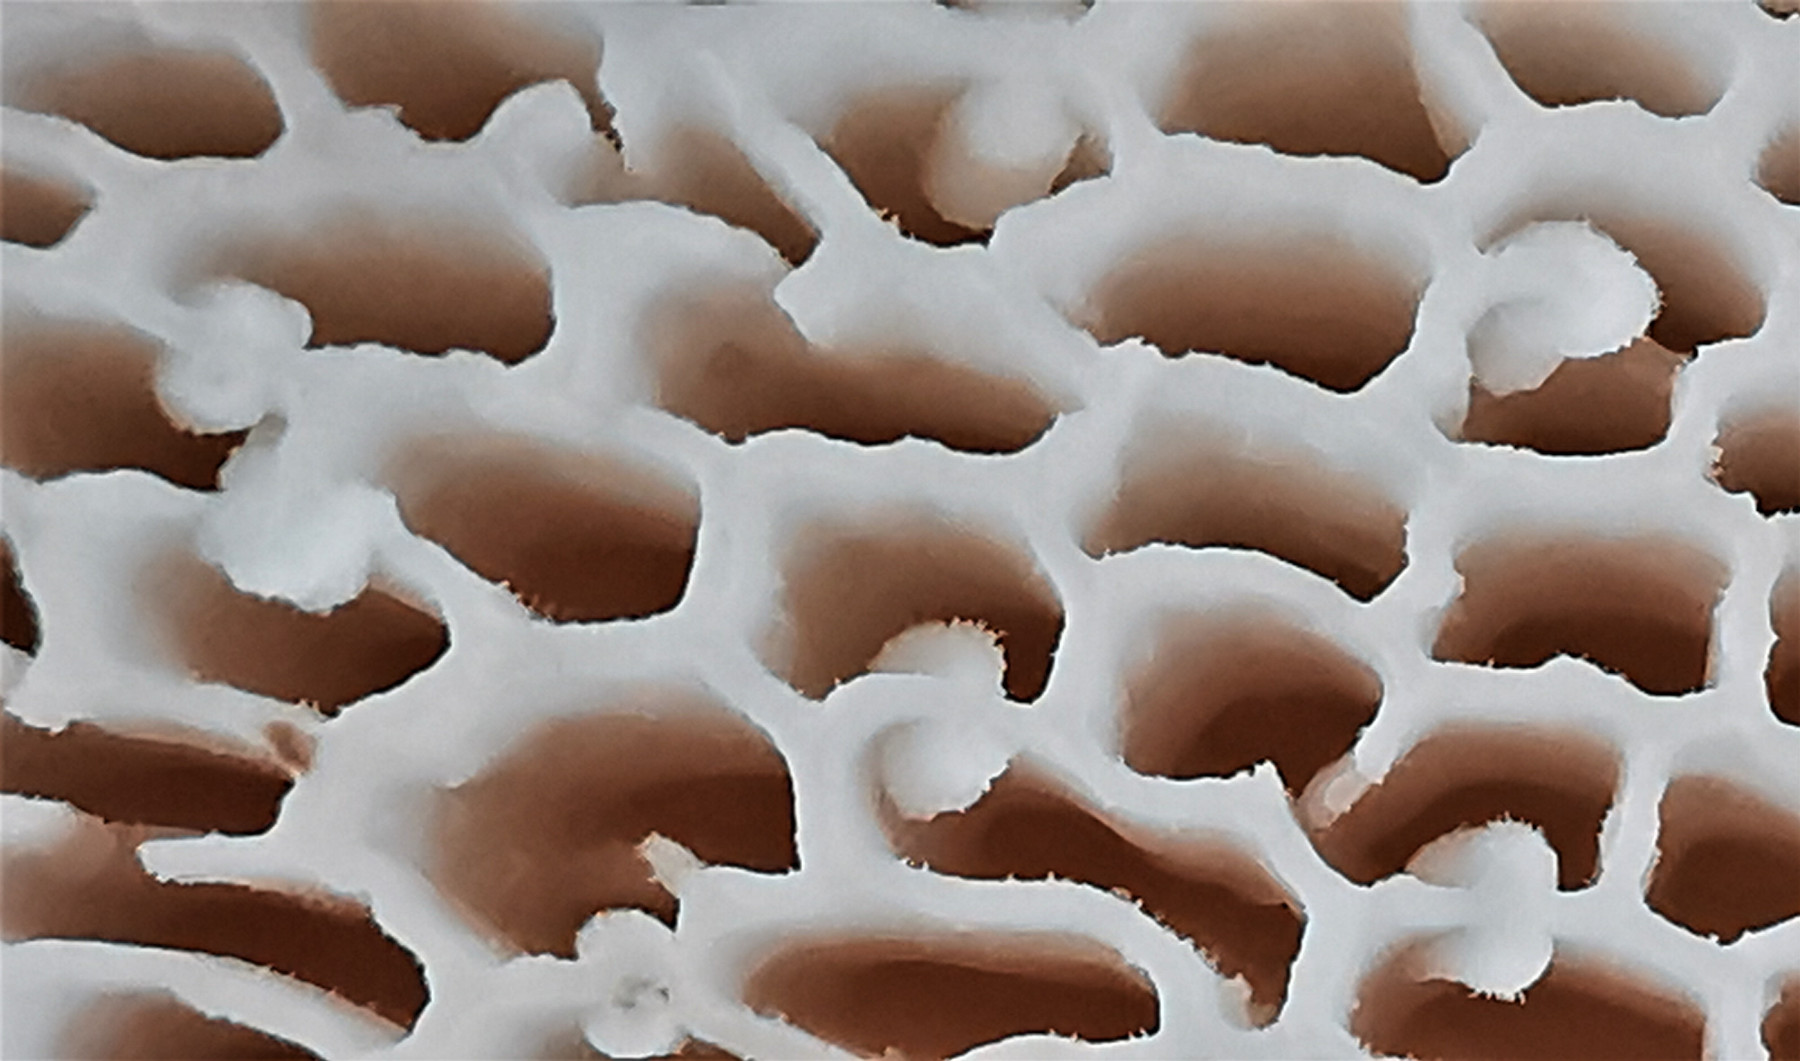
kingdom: Fungi
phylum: Basidiomycota
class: Agaricomycetes
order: Polyporales
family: Polyporaceae
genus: Cerioporus
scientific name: Cerioporus squamosus
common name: skællet stilkporesvamp
